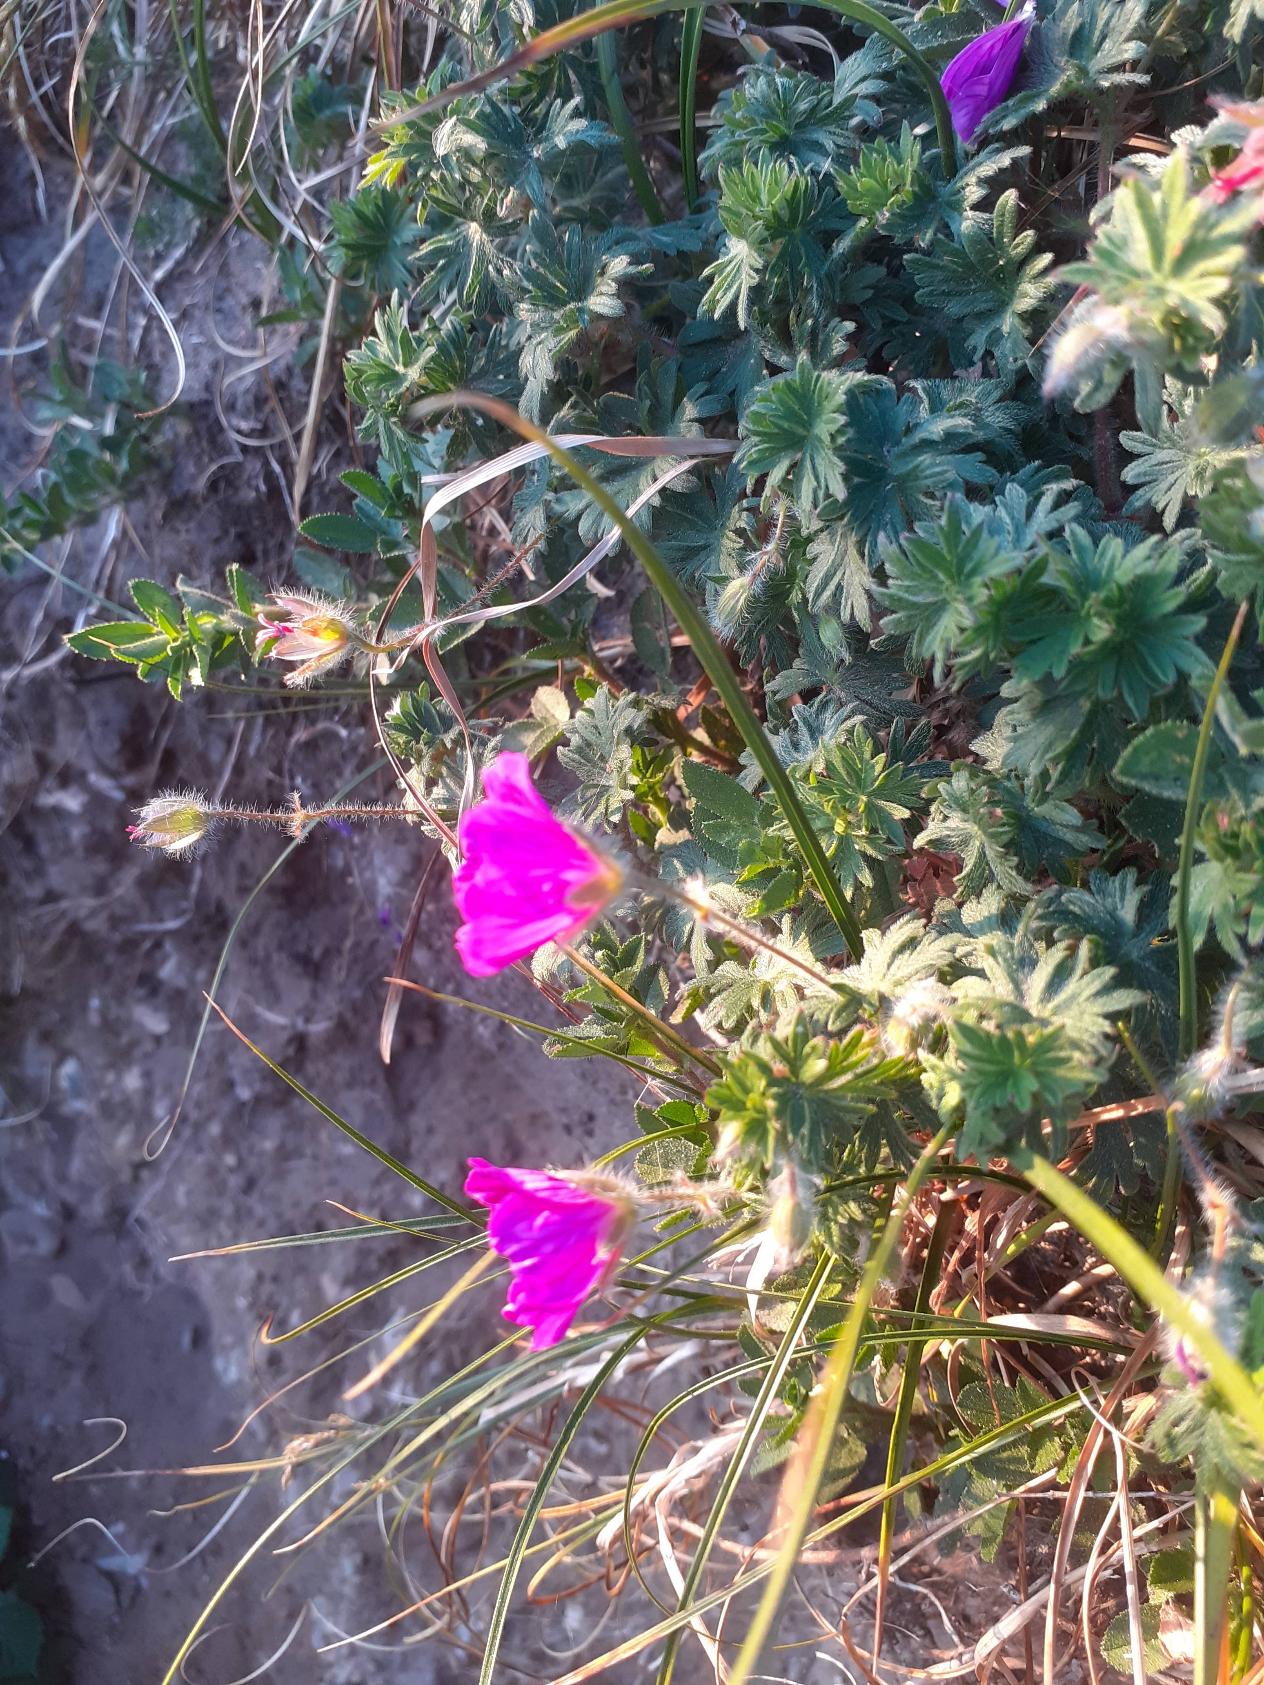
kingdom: Plantae
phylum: Tracheophyta
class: Magnoliopsida
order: Geraniales
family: Geraniaceae
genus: Geranium
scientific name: Geranium sanguineum
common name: Blodrød storkenæb
